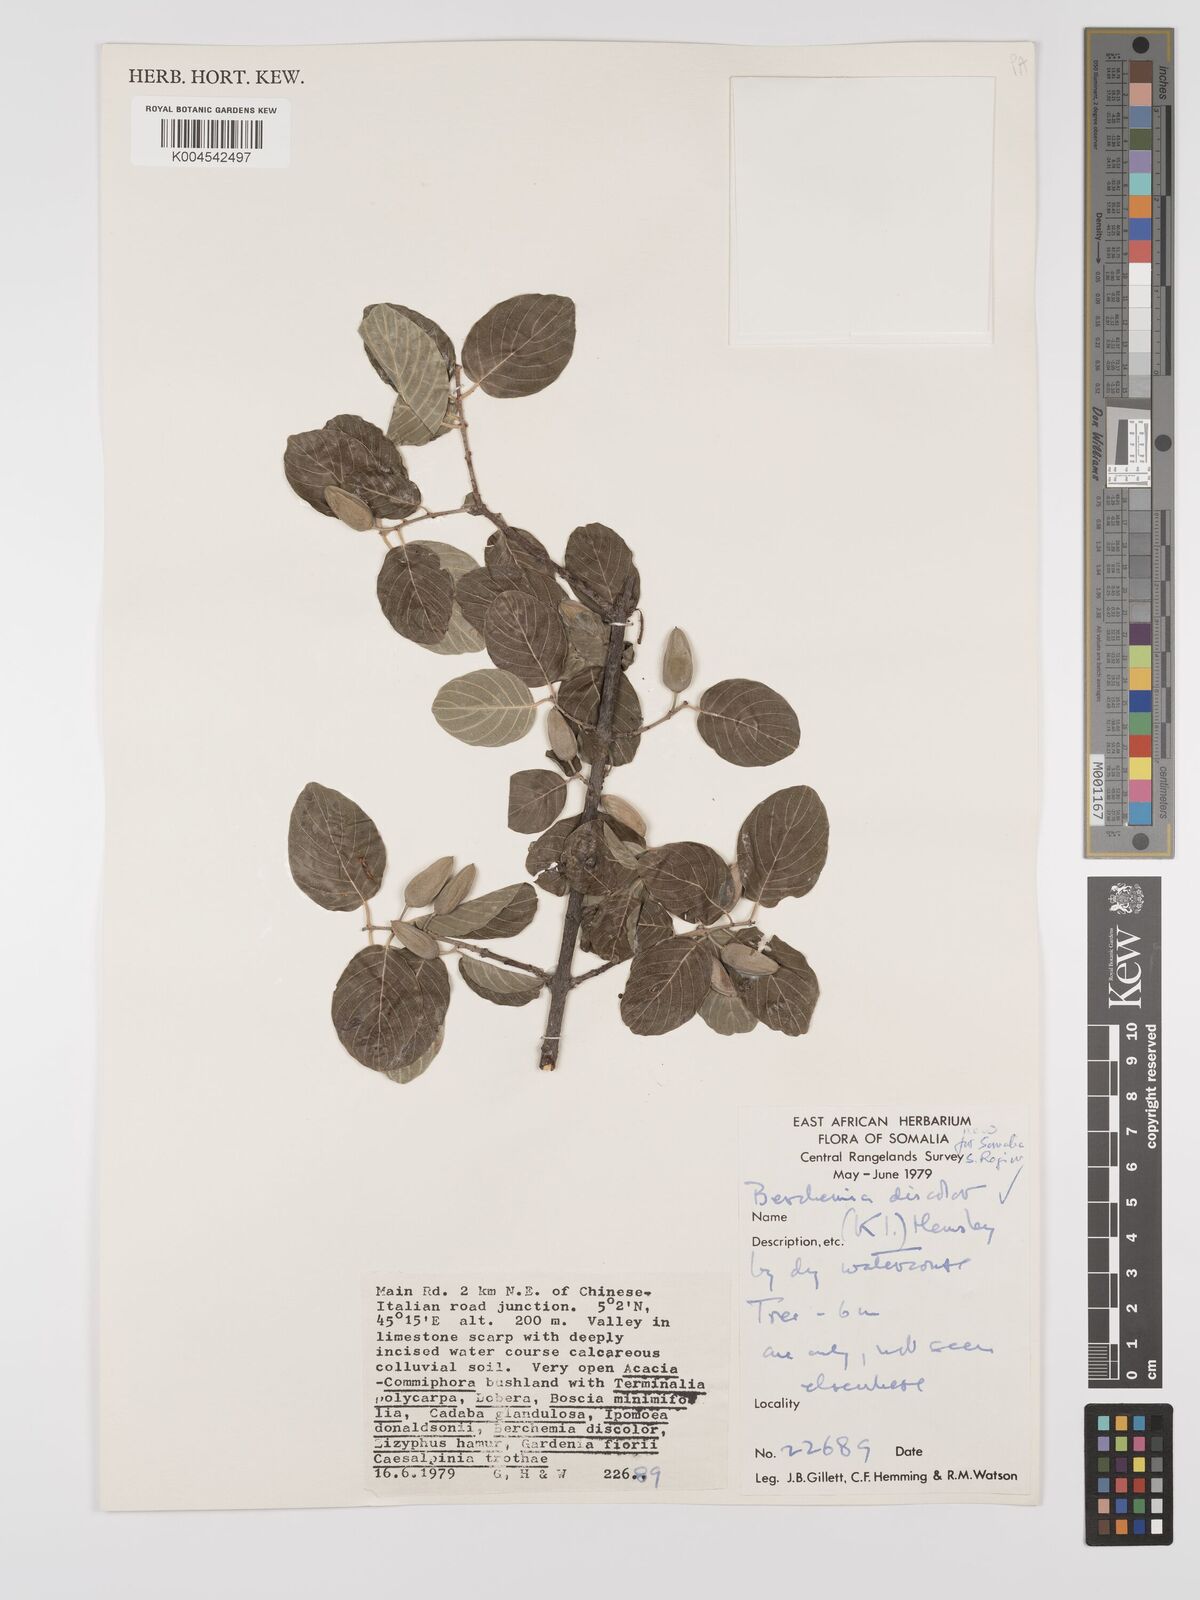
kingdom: Plantae
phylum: Tracheophyta
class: Magnoliopsida
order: Rosales
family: Rhamnaceae
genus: Phyllogeiton
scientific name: Phyllogeiton discolor
